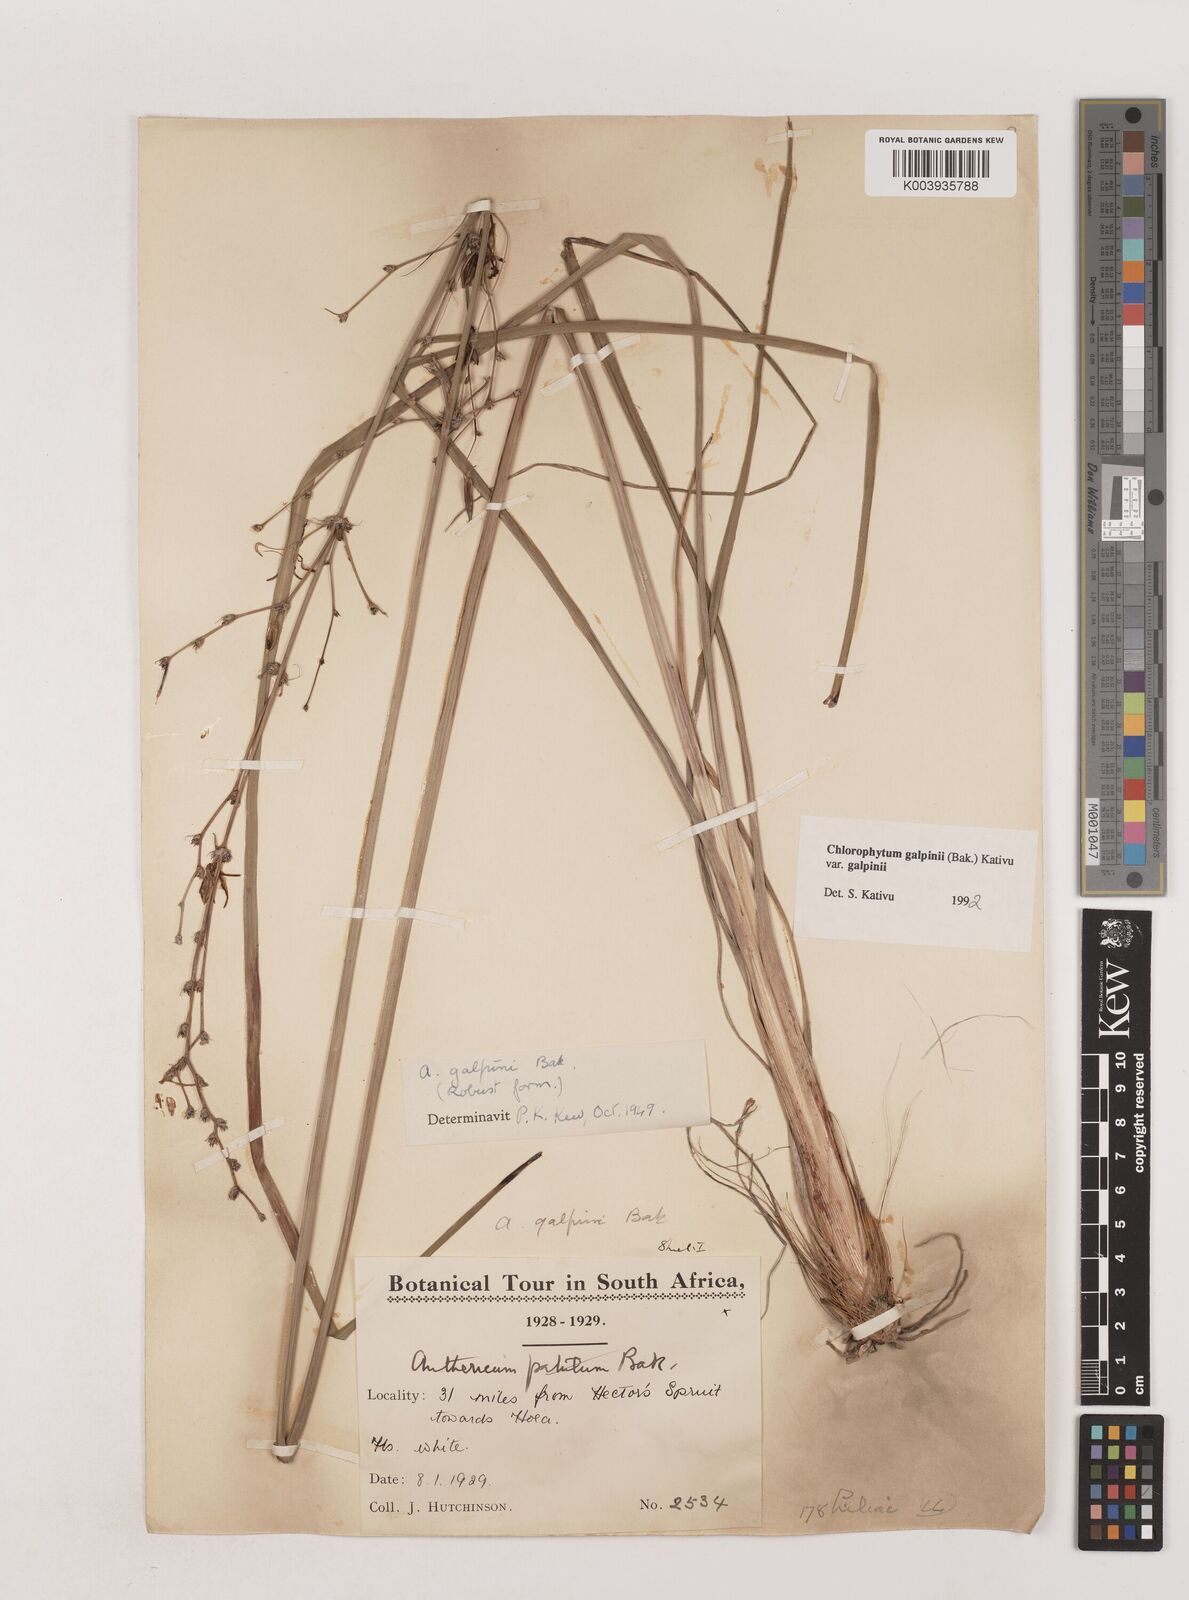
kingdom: Plantae
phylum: Tracheophyta
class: Liliopsida
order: Asparagales
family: Asparagaceae
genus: Chlorophytum
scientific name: Chlorophytum galpinii
